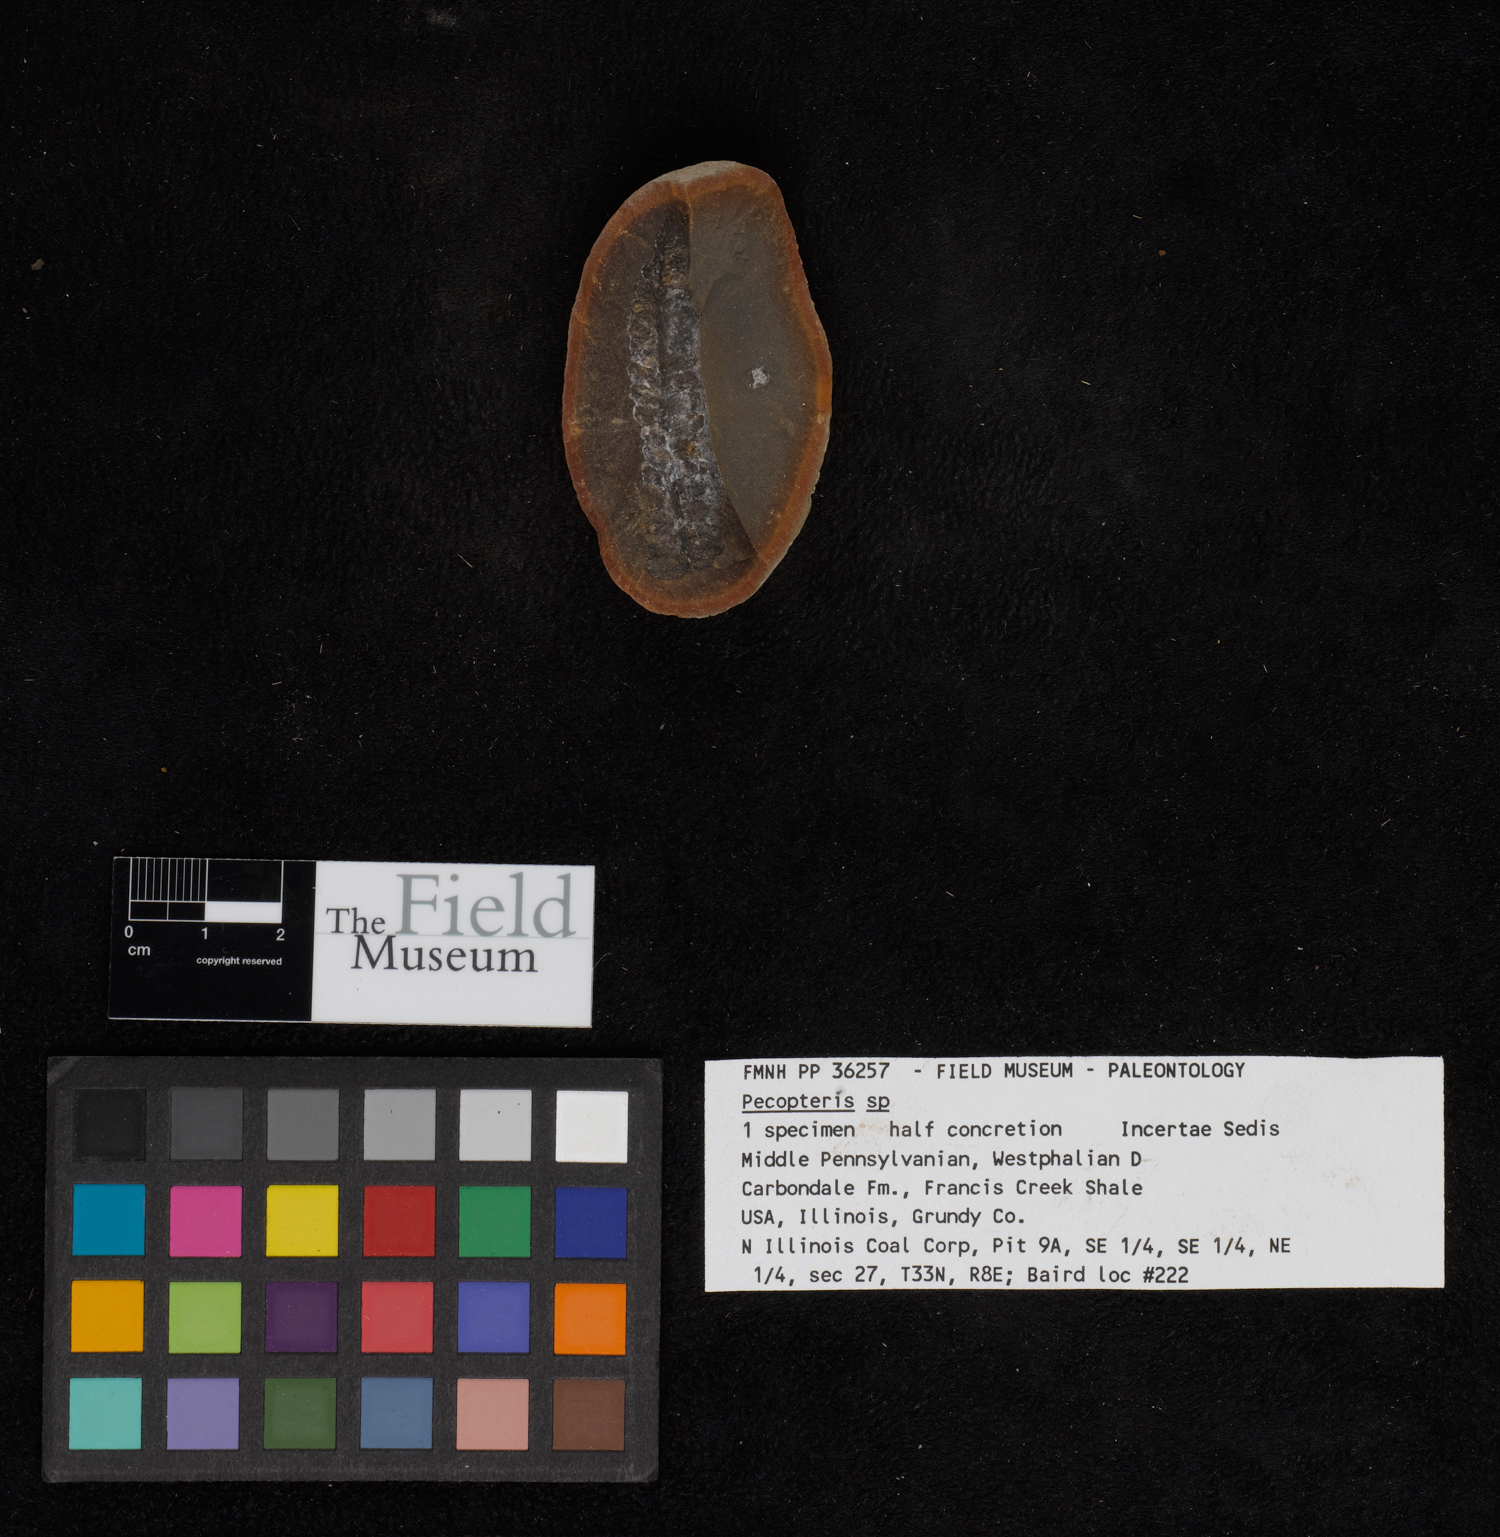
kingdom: Plantae
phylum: Tracheophyta
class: Polypodiopsida
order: Marattiales
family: Asterothecaceae
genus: Pecopteris
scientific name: Pecopteris
